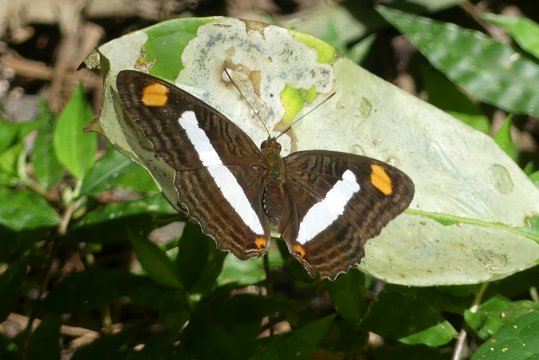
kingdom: Animalia
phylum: Arthropoda
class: Insecta
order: Lepidoptera
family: Nymphalidae
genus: Limenitis
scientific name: Limenitis Adelpha basiloides
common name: Spot-celled Sister
